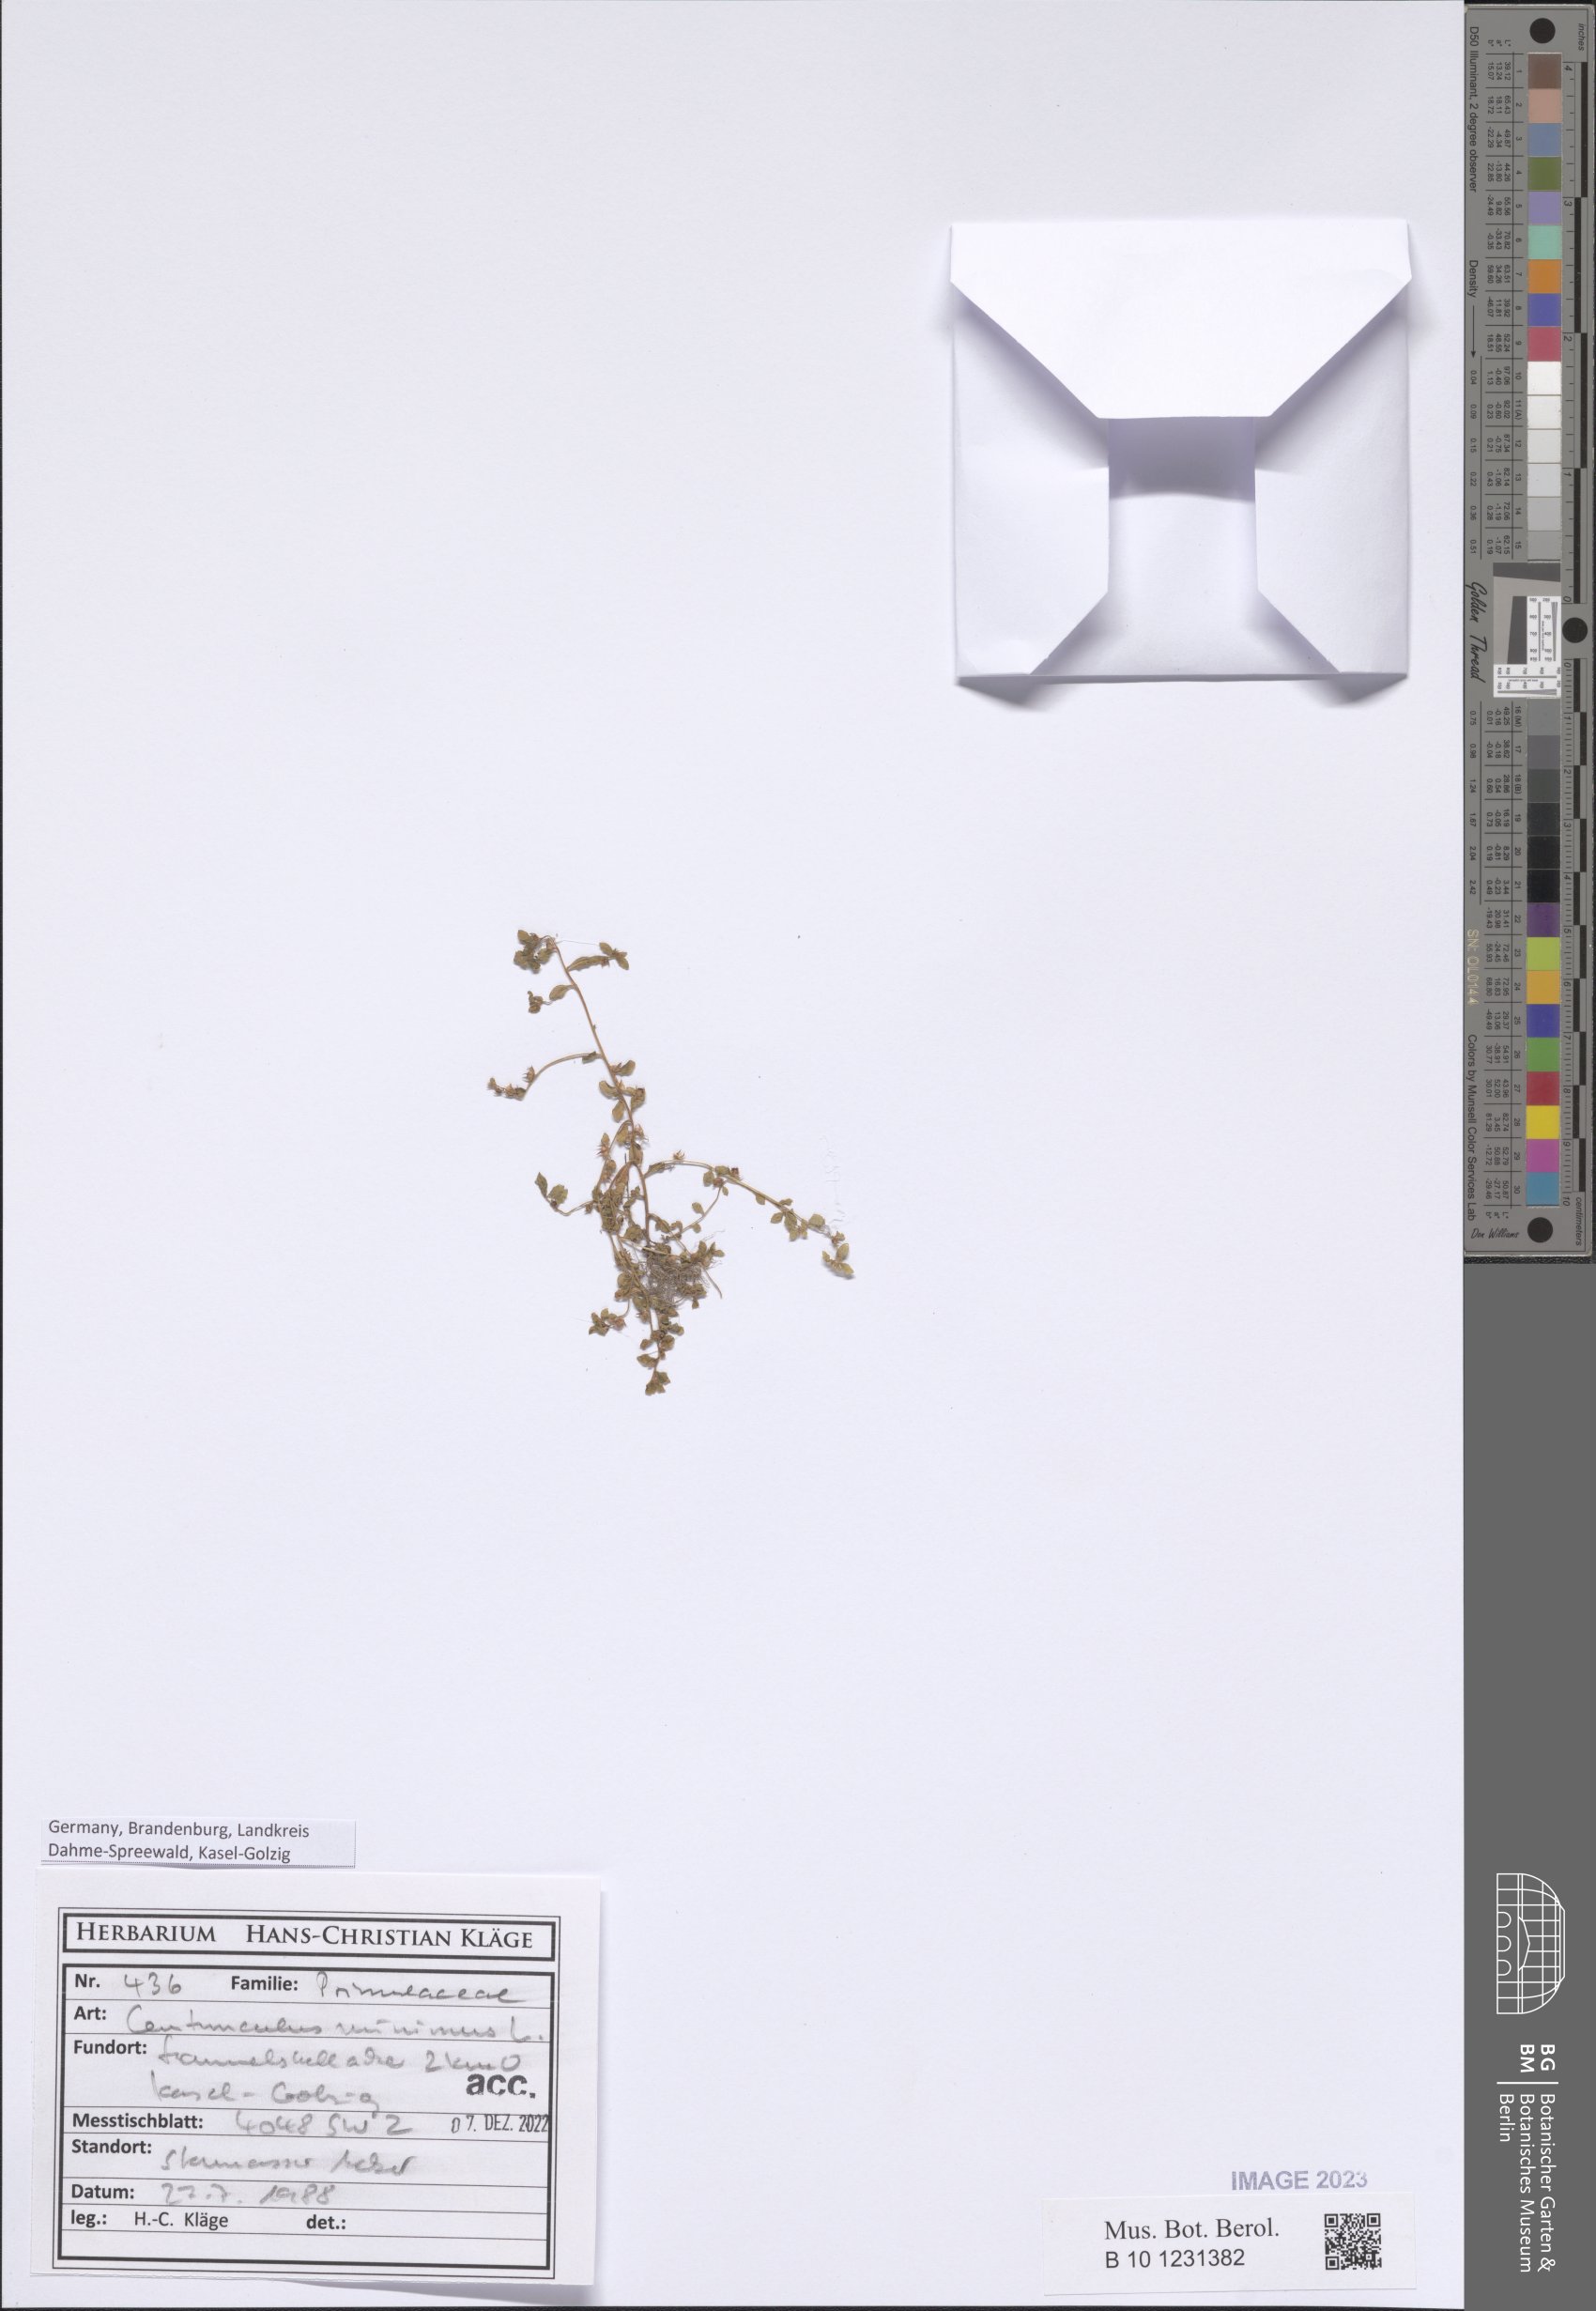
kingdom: Plantae
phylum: Tracheophyta
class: Magnoliopsida
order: Ericales
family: Primulaceae
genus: Lysimachia
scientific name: Lysimachia minima
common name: Chaffweed
